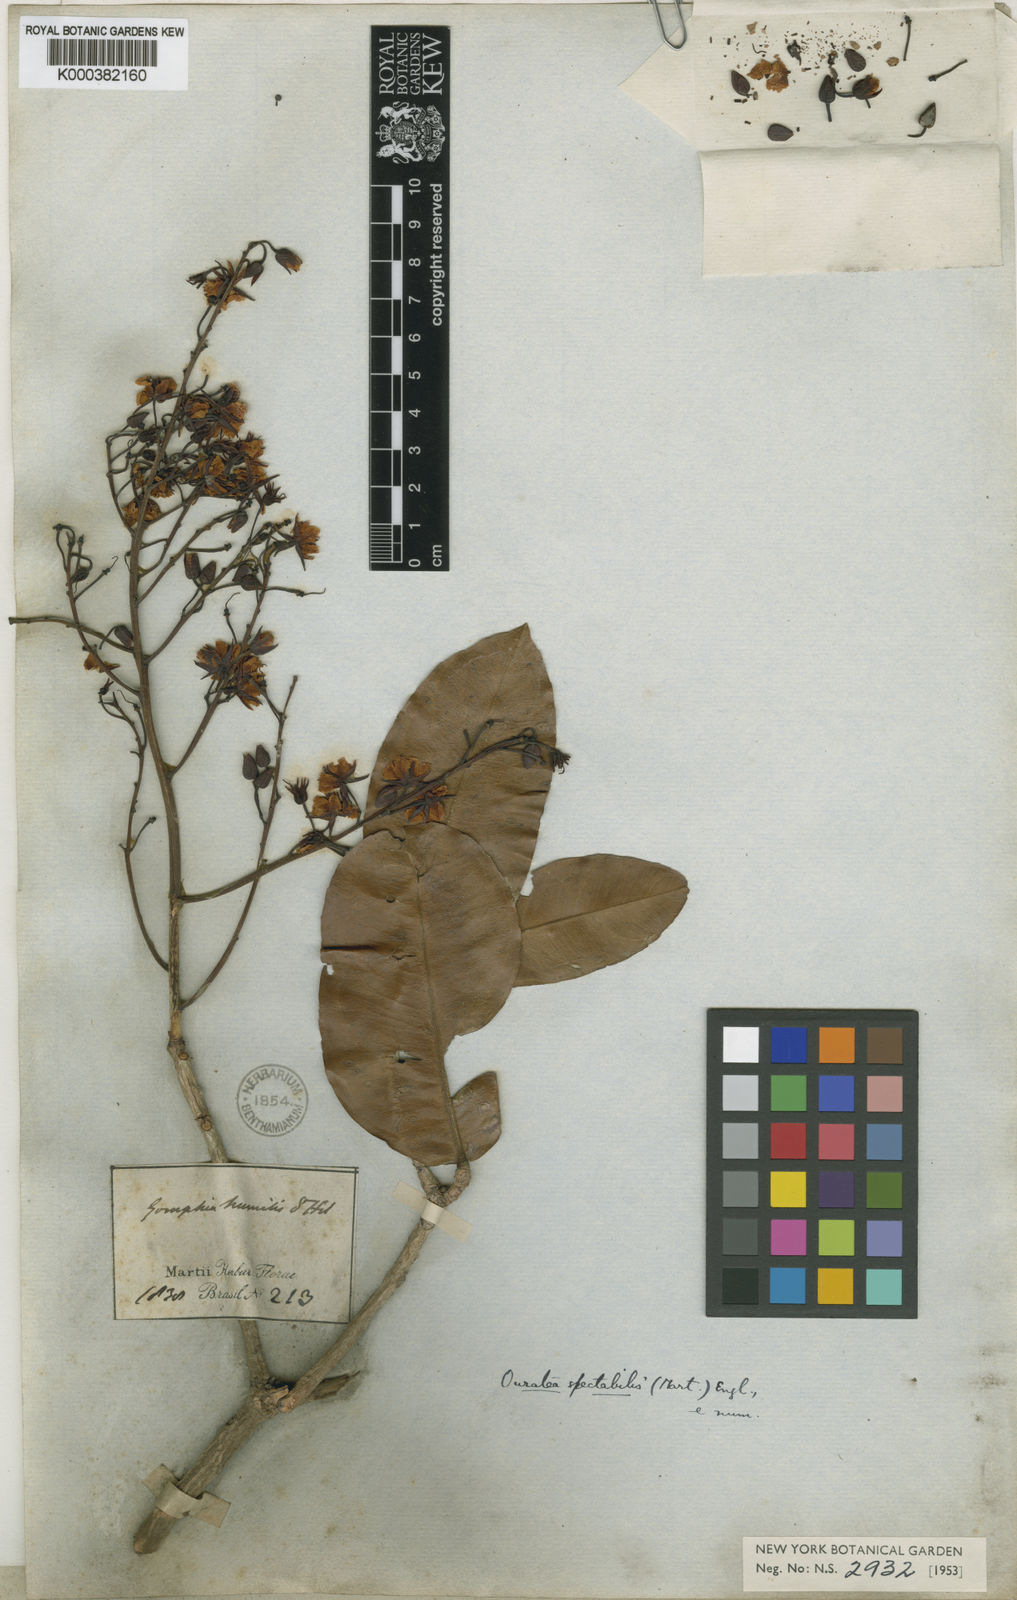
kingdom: Plantae
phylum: Tracheophyta
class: Magnoliopsida
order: Malpighiales
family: Ochnaceae
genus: Ouratea
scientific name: Ouratea spectabilis
